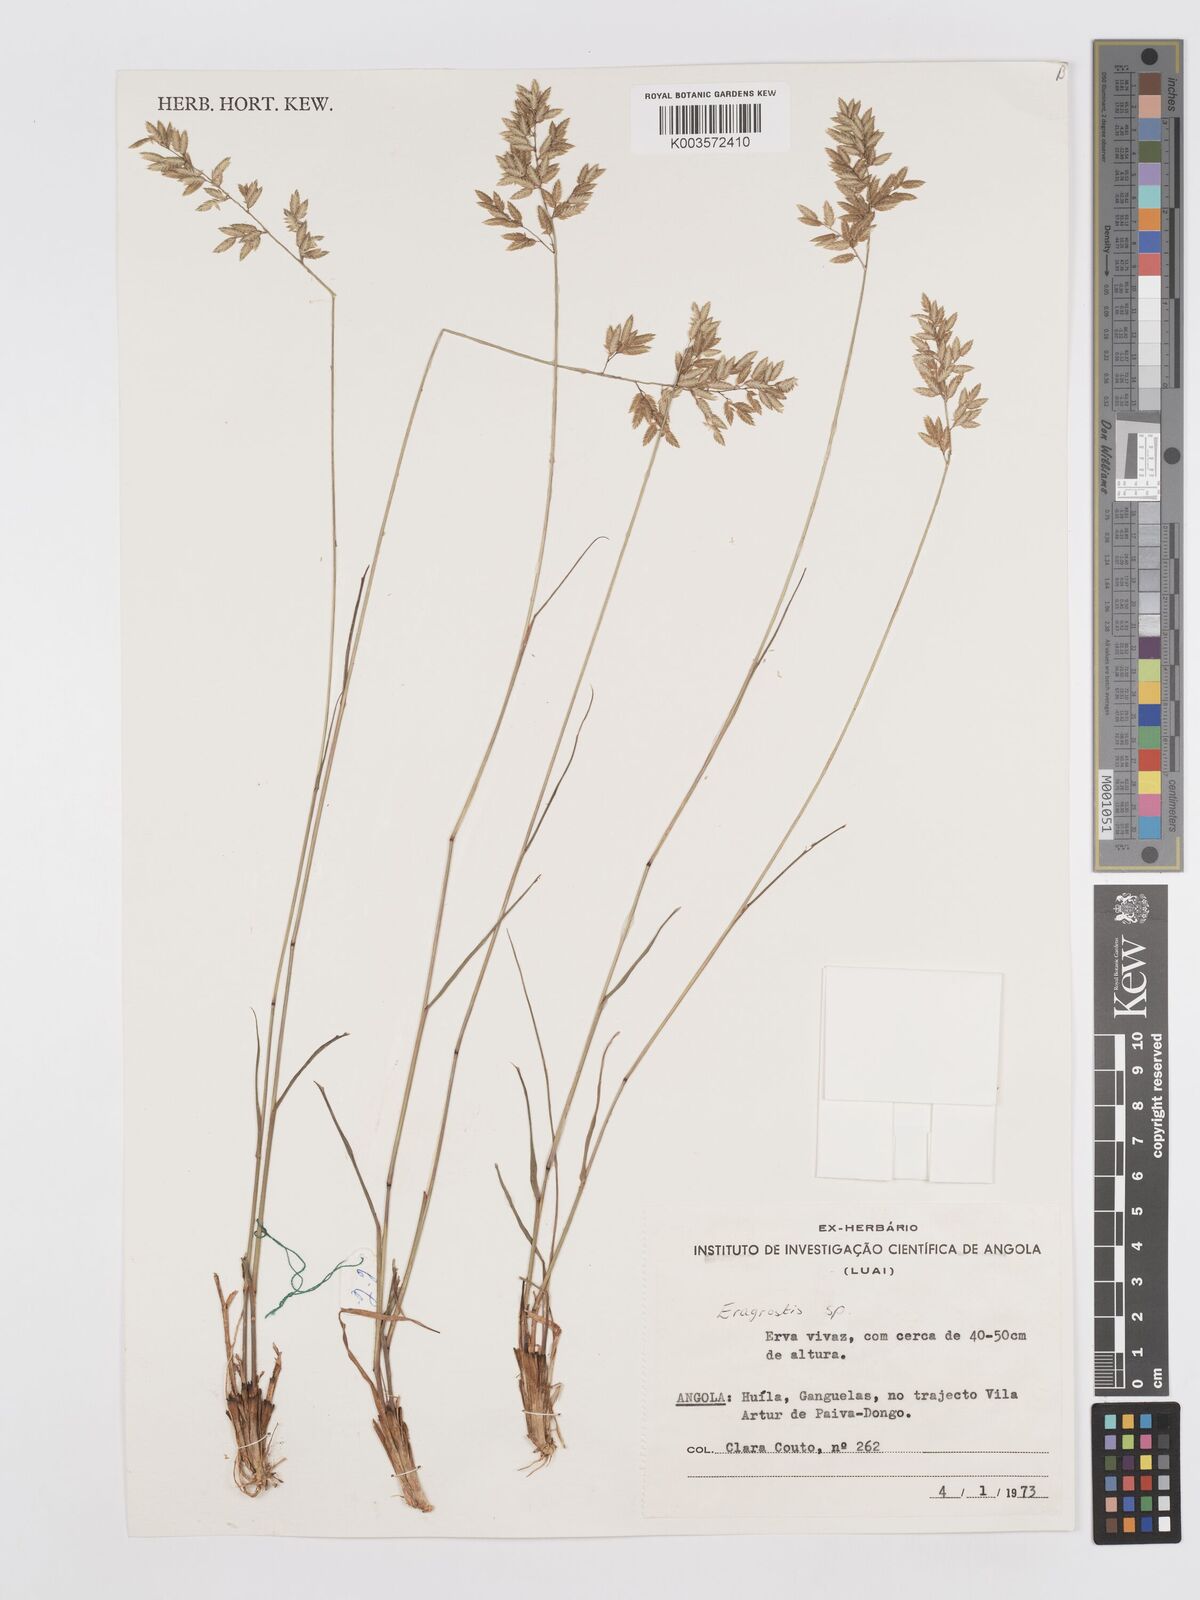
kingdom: Plantae
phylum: Tracheophyta
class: Liliopsida
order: Poales
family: Poaceae
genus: Eragrostis
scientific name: Eragrostis
